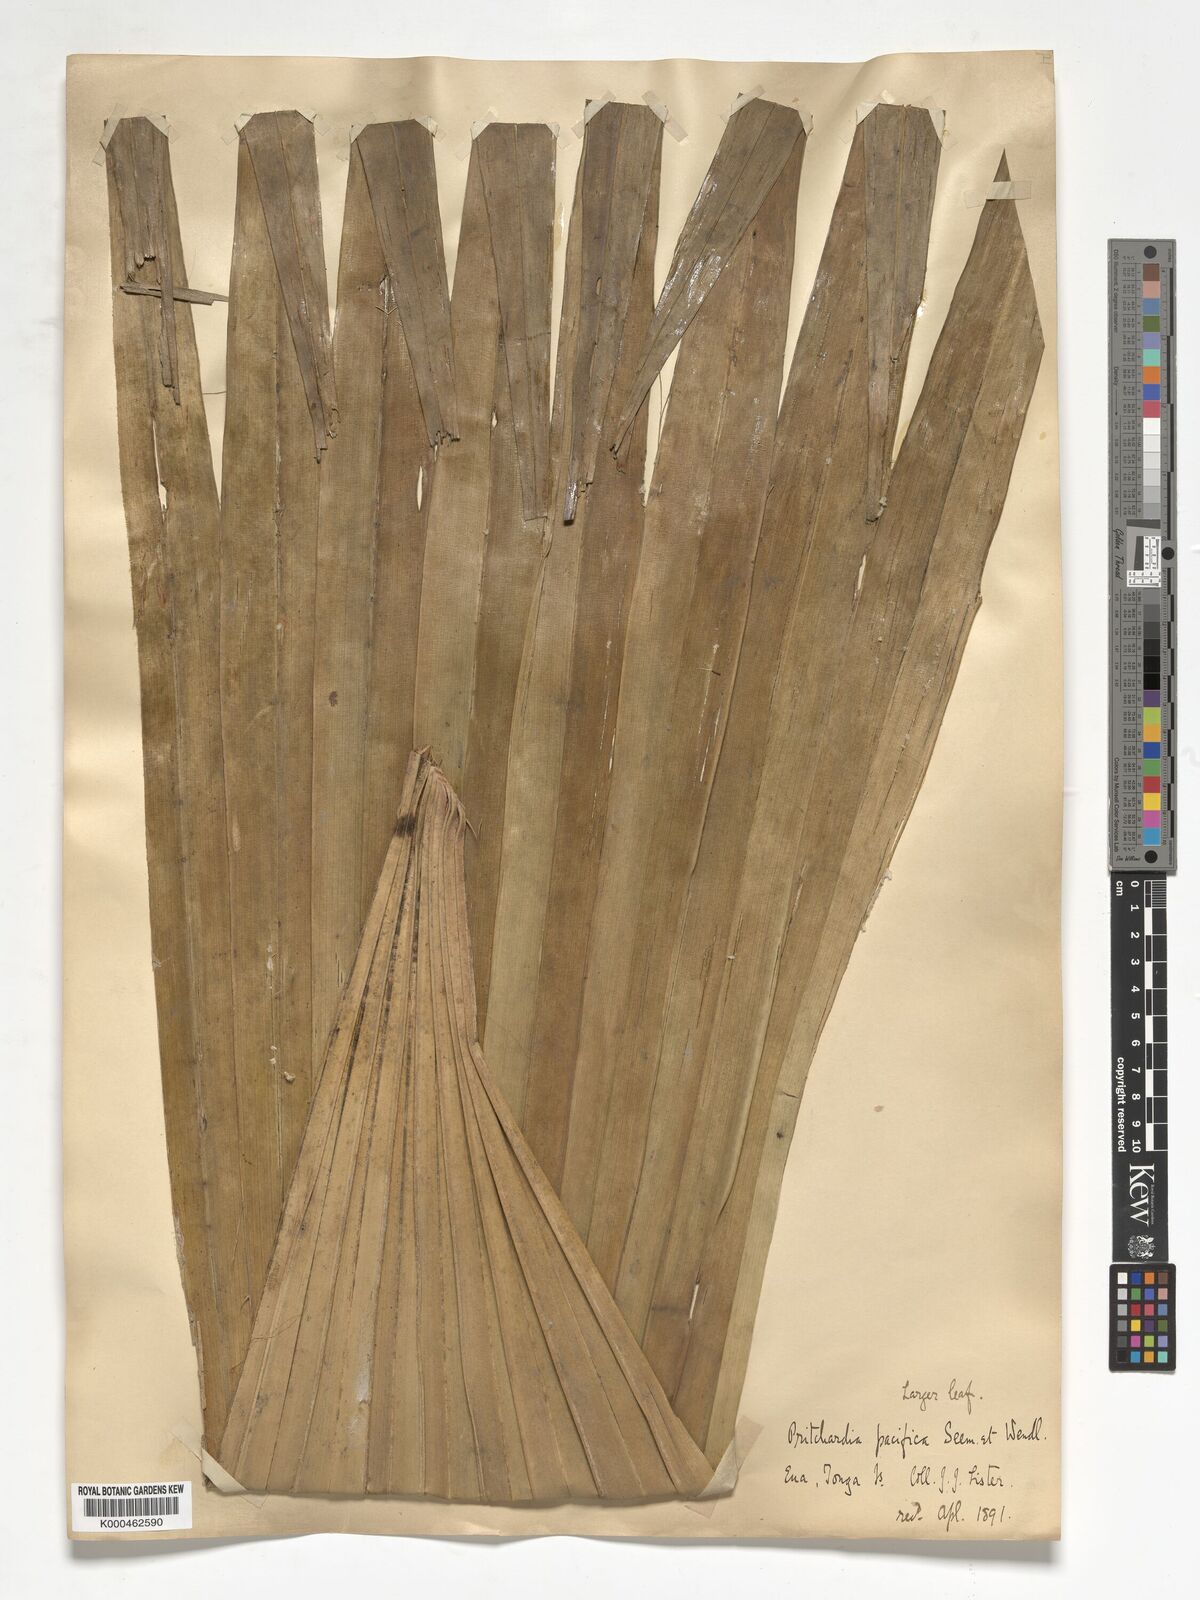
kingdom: Plantae
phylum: Tracheophyta
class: Liliopsida
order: Arecales
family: Arecaceae
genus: Pritchardia
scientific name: Pritchardia pacifica
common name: Fiji fan palm
